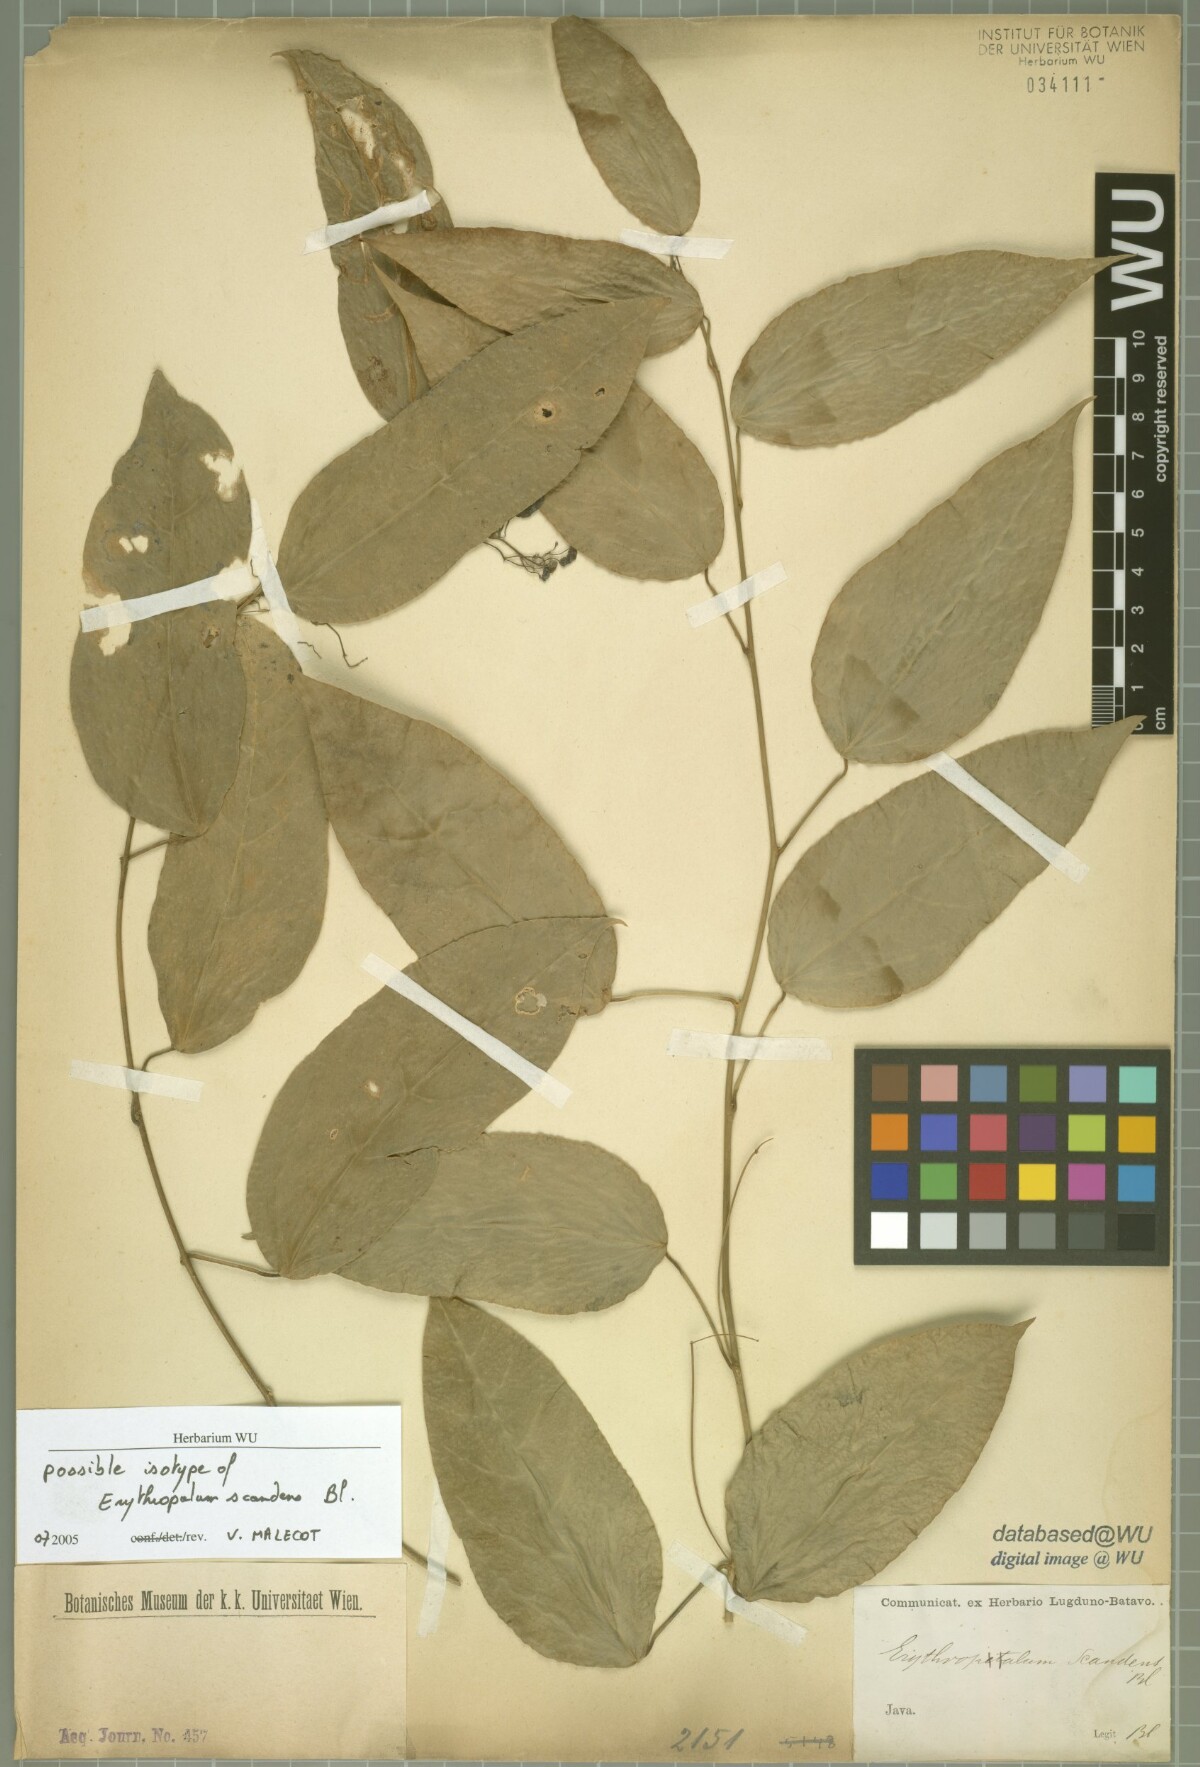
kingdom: Plantae
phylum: Tracheophyta
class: Magnoliopsida
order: Santalales
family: Erythropalaceae
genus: Erythropalum
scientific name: Erythropalum scandens
